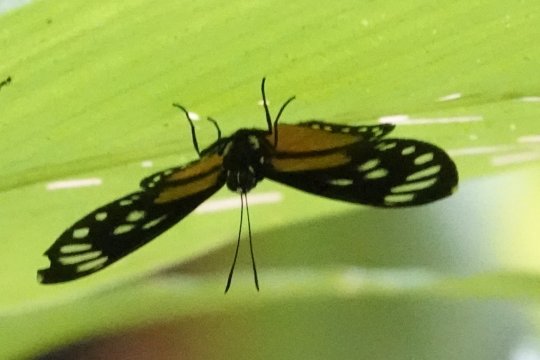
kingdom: Animalia
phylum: Arthropoda
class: Insecta
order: Lepidoptera
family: Riodinidae
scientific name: Riodinidae
